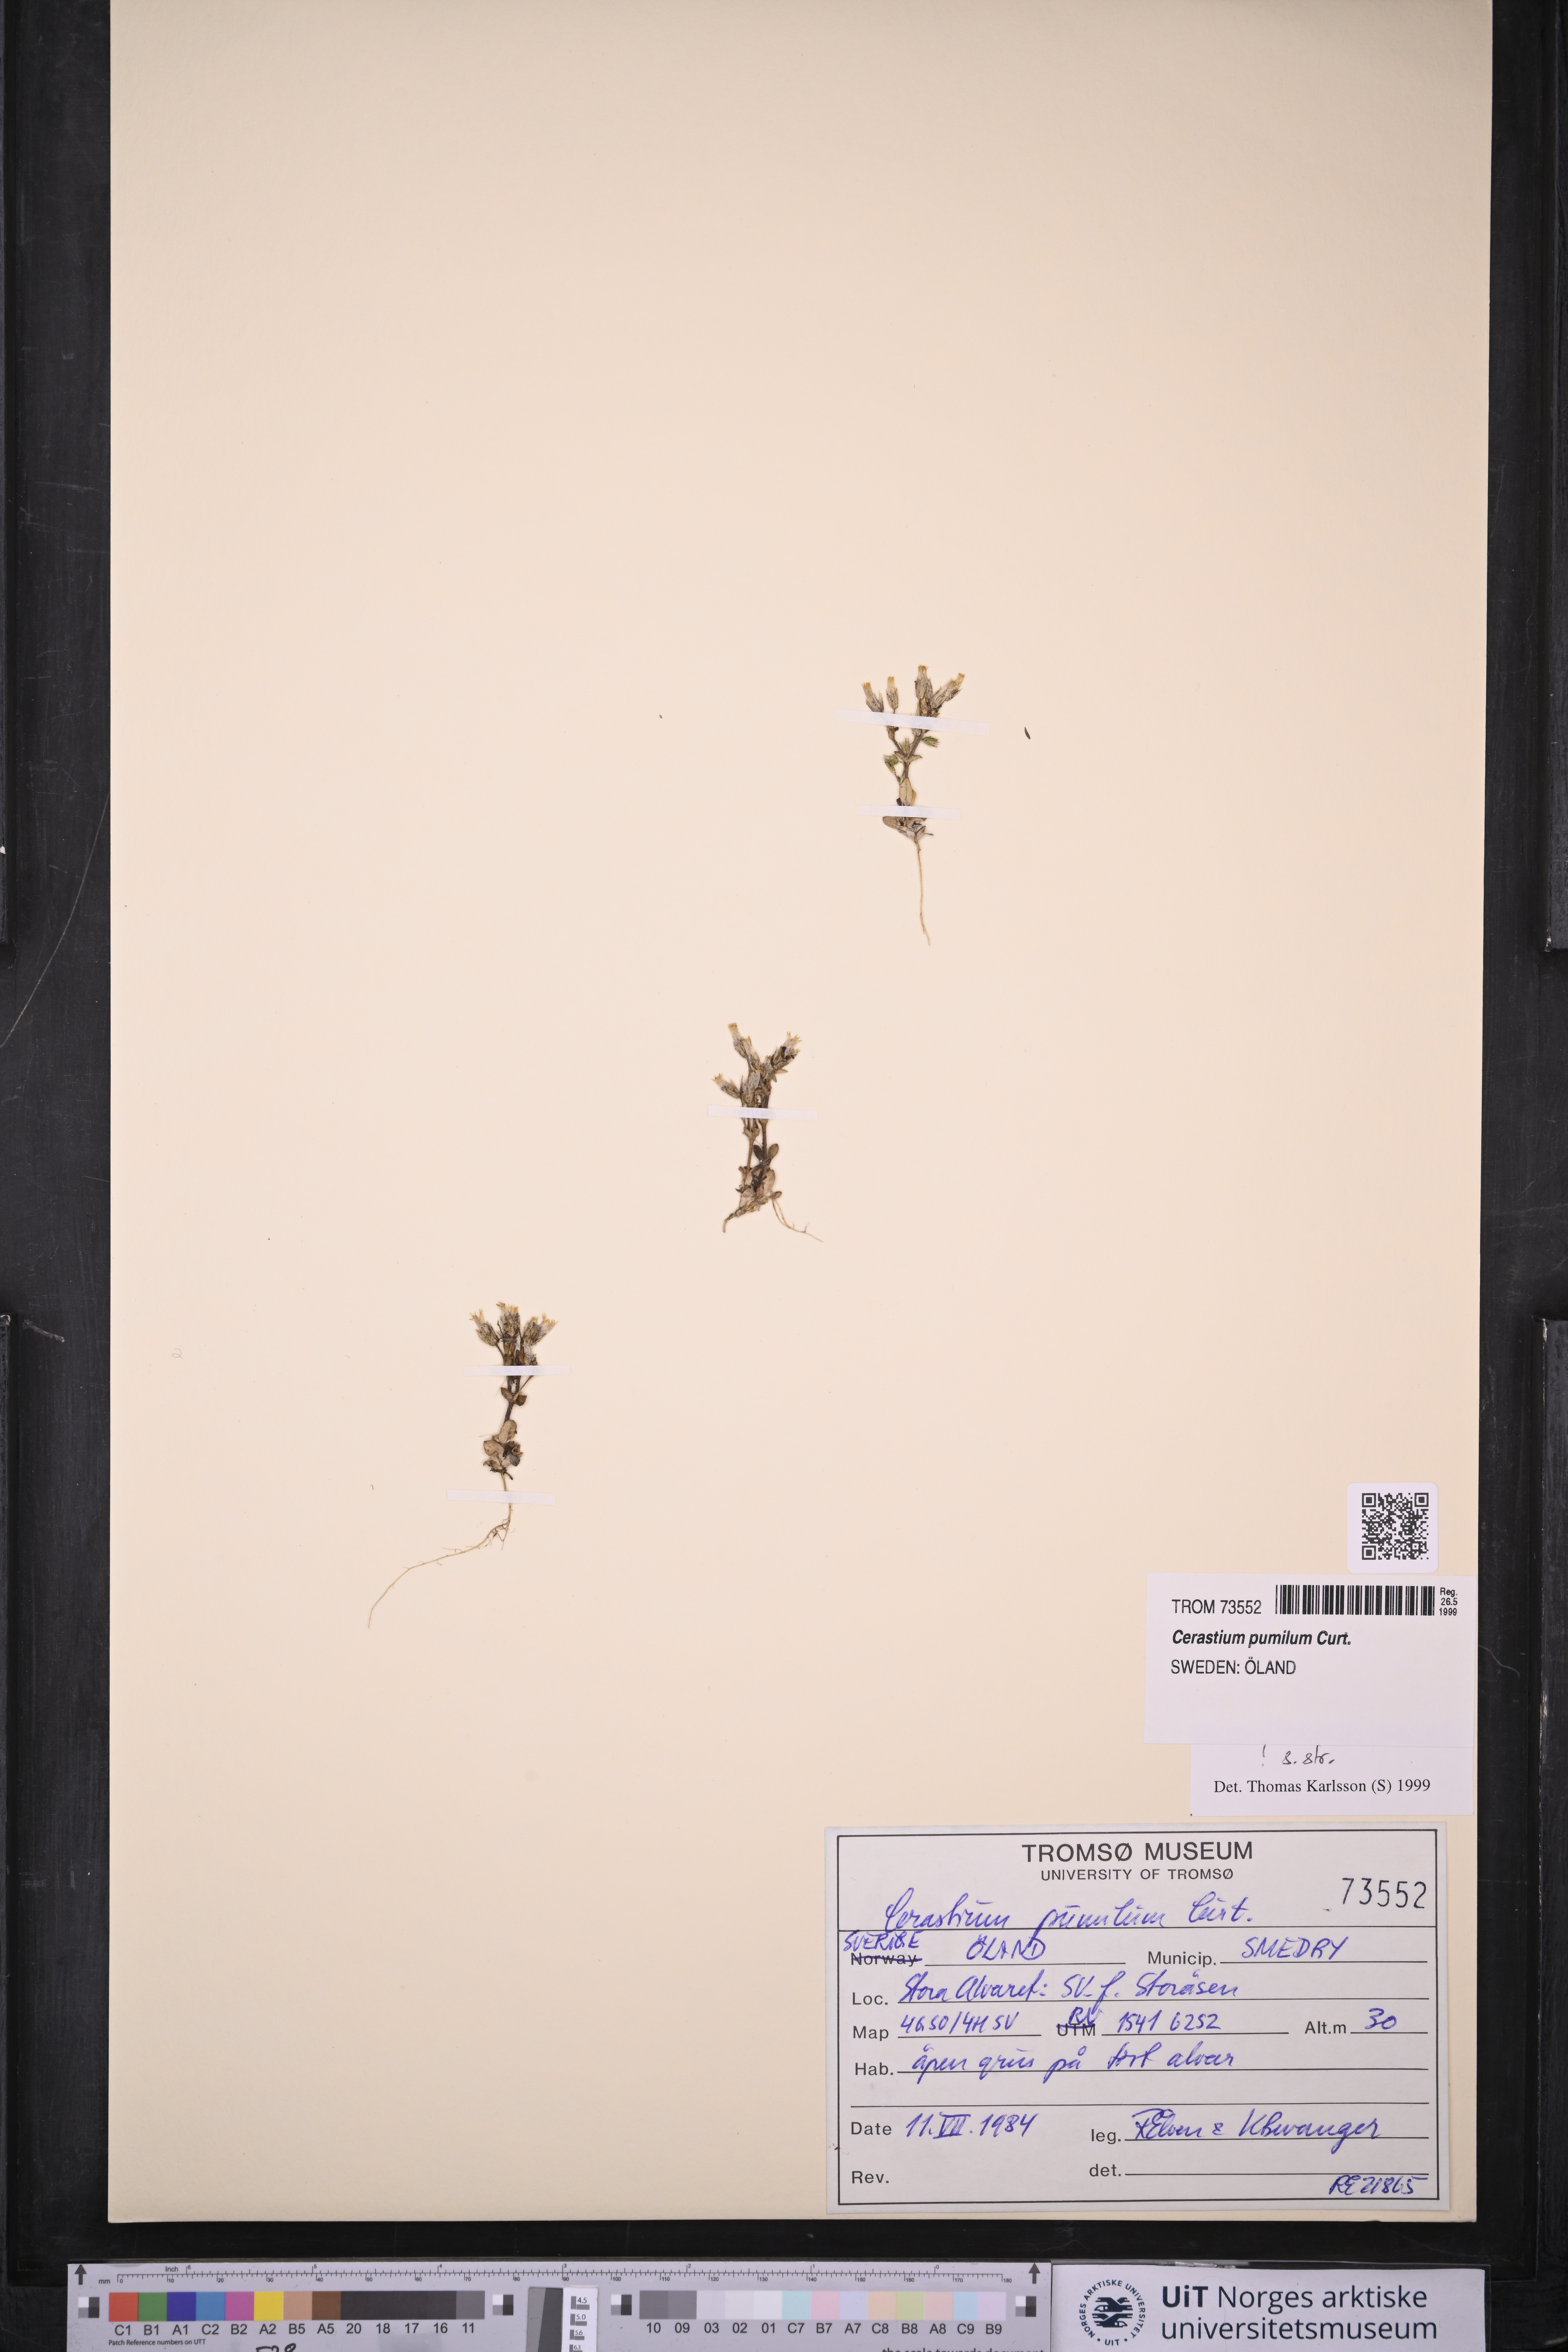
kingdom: Plantae
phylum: Tracheophyta
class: Magnoliopsida
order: Caryophyllales
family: Caryophyllaceae
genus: Cerastium
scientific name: Cerastium pumilum
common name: Dwarf mouse-ear
